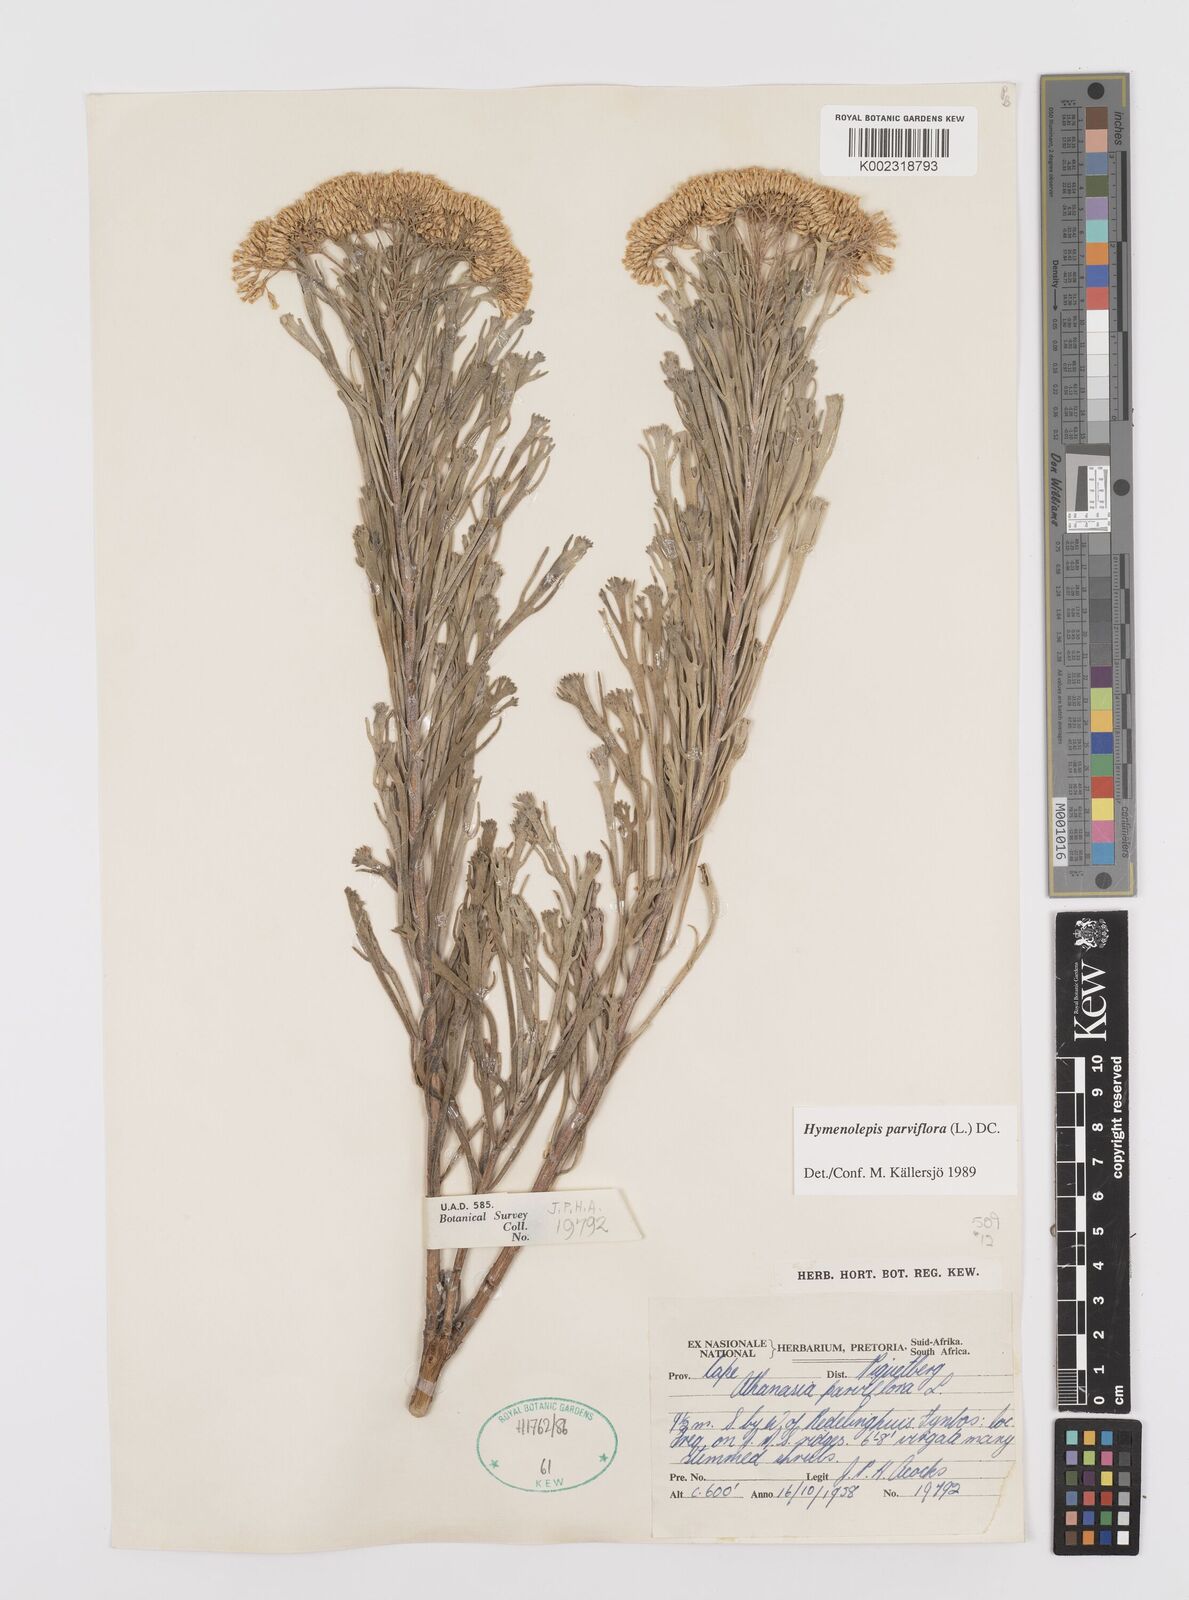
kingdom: Plantae
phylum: Tracheophyta
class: Magnoliopsida
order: Asterales
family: Asteraceae
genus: Hymenolepis
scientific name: Hymenolepis crithmifolia
